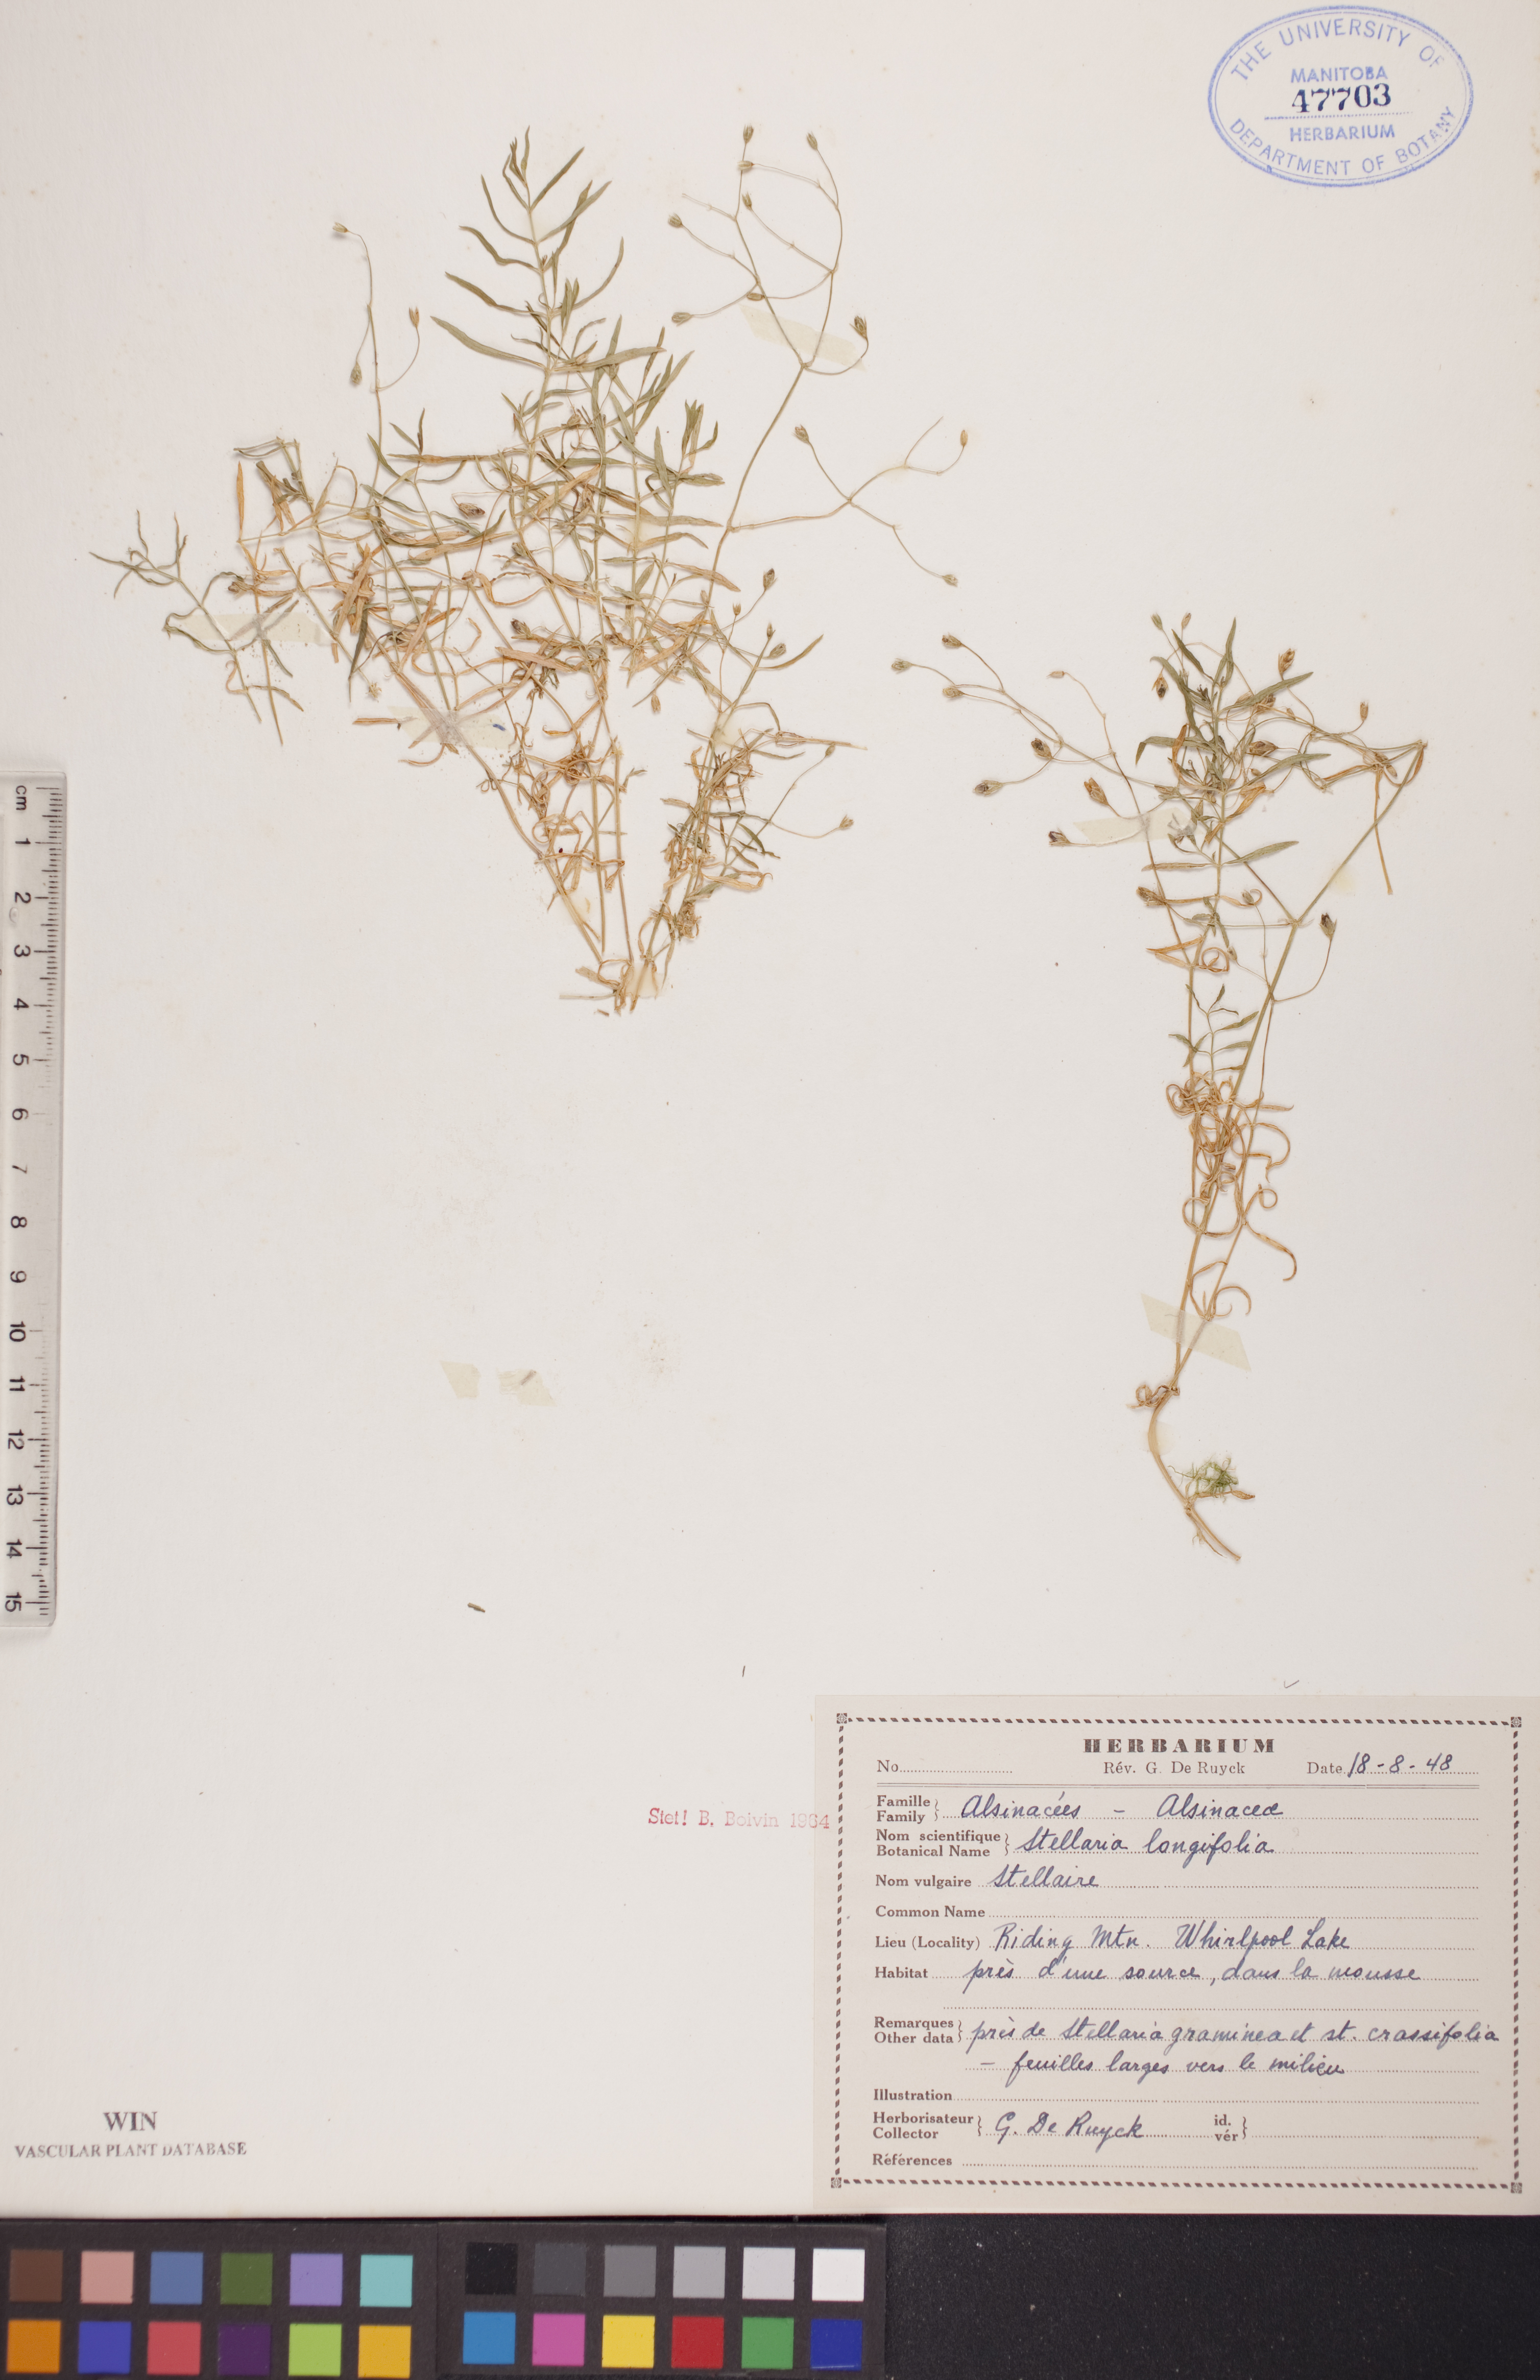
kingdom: Plantae
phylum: Tracheophyta
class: Magnoliopsida
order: Caryophyllales
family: Caryophyllaceae
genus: Stellaria
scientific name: Stellaria longifolia
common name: Long-leaved chickweed
